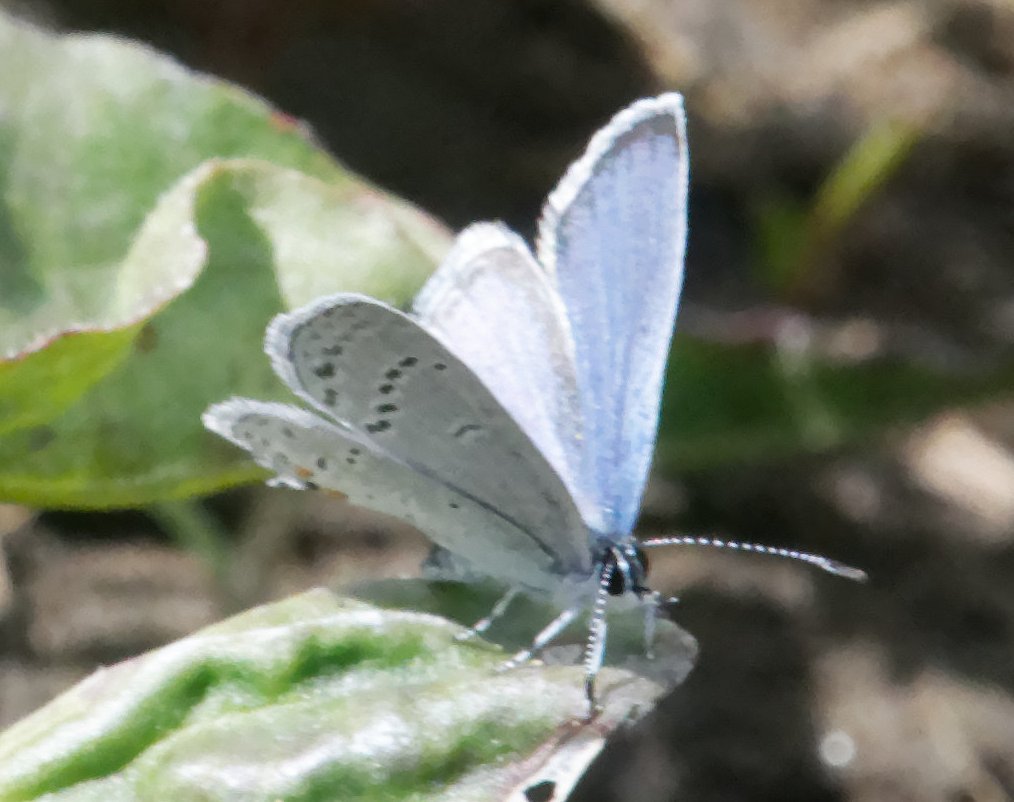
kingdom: Animalia
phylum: Arthropoda
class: Insecta
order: Lepidoptera
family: Lycaenidae
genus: Elkalyce
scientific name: Elkalyce comyntas
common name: Eastern Tailed-Blue
